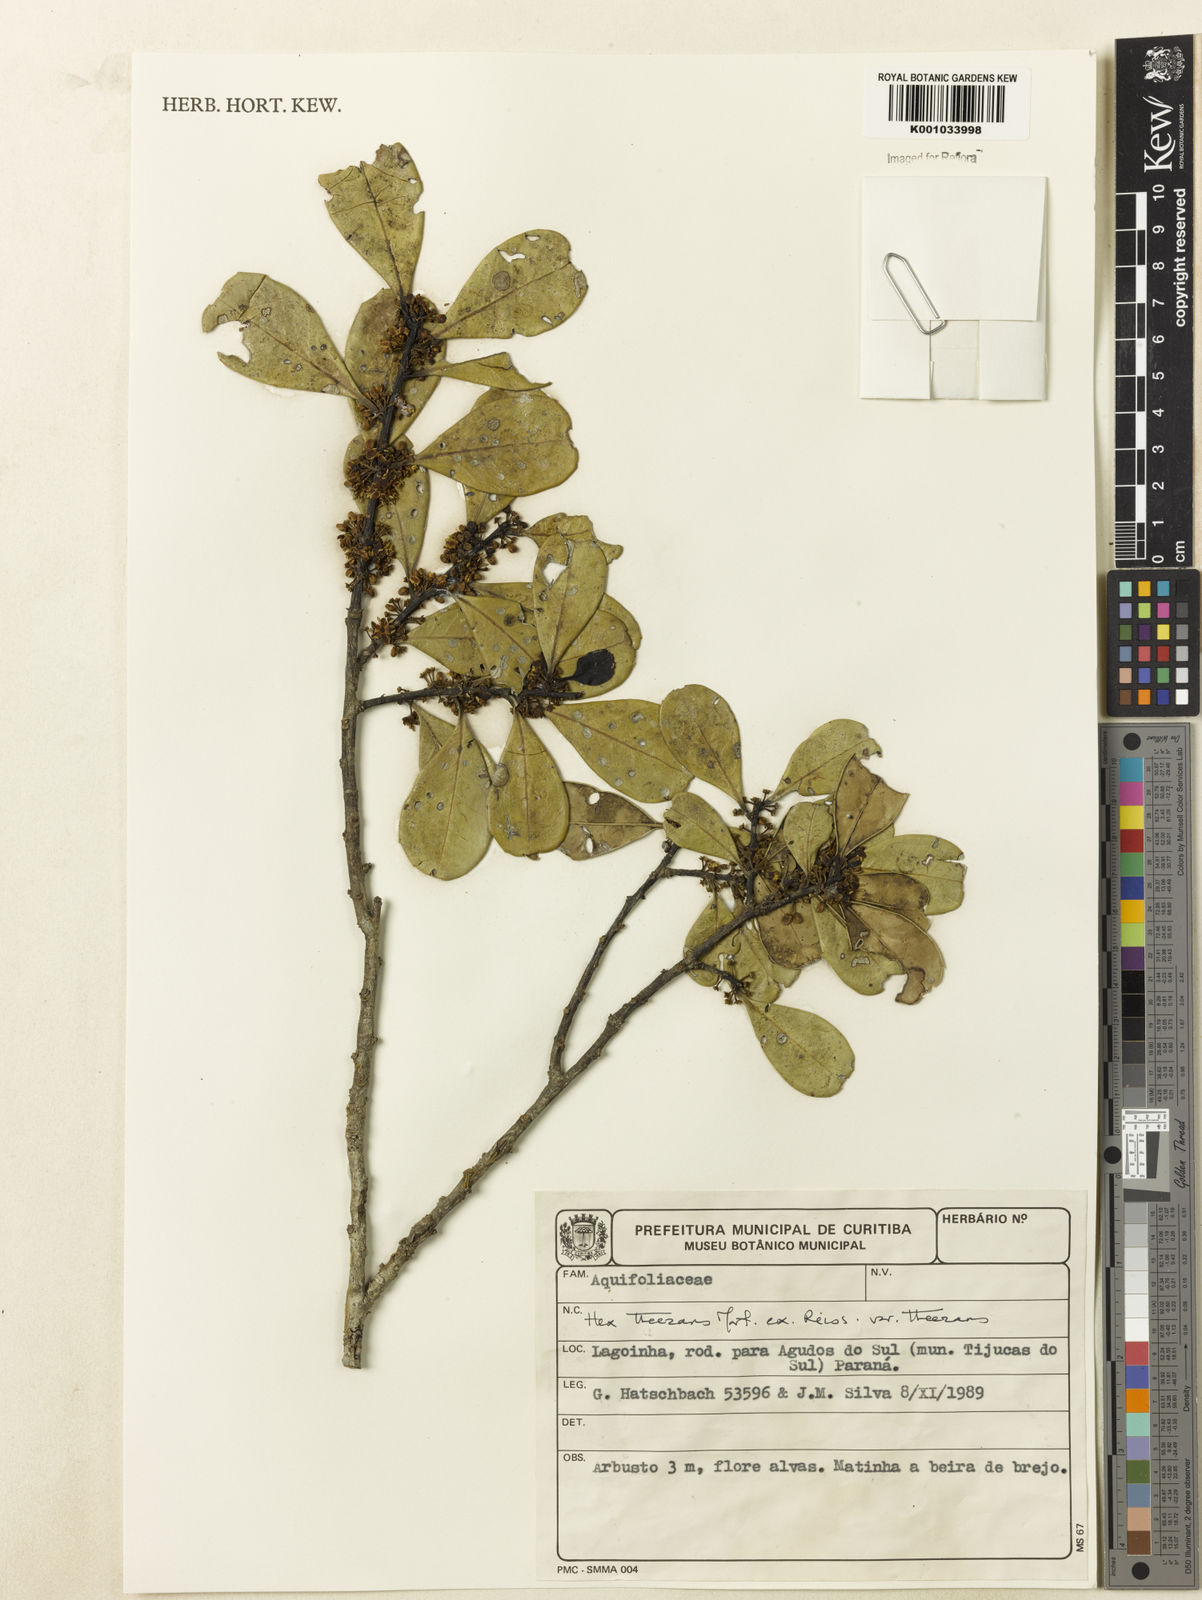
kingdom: Plantae
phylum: Tracheophyta
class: Magnoliopsida
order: Aquifoliales
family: Aquifoliaceae
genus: Ilex
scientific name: Ilex
